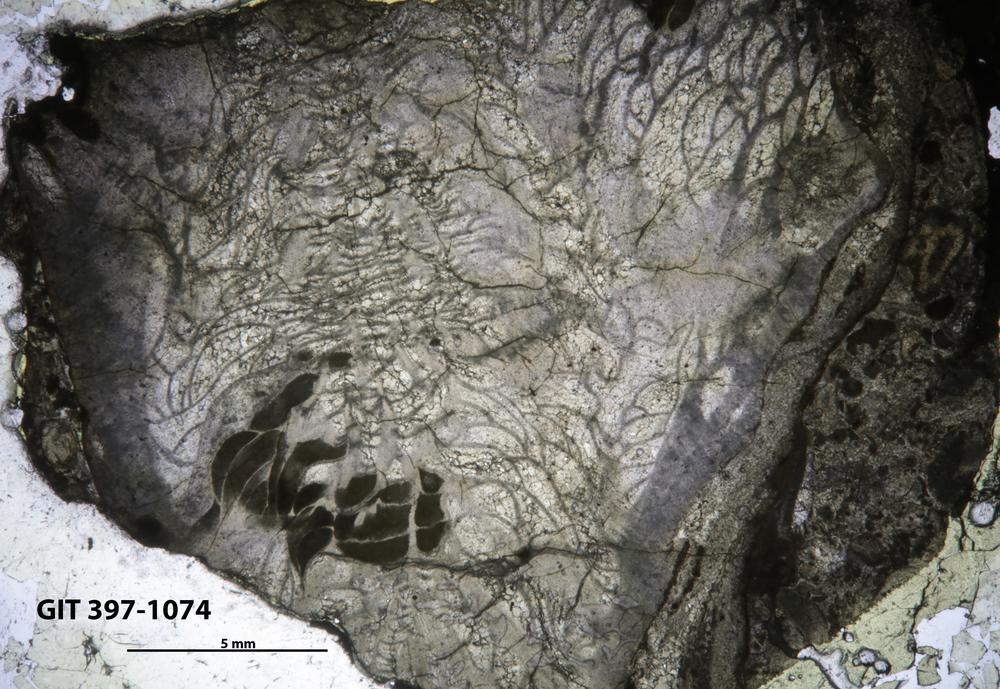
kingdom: Animalia
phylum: Cnidaria
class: Anthozoa
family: Paliphyllidae
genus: Paliphyllum
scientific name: Paliphyllum soshkinae
